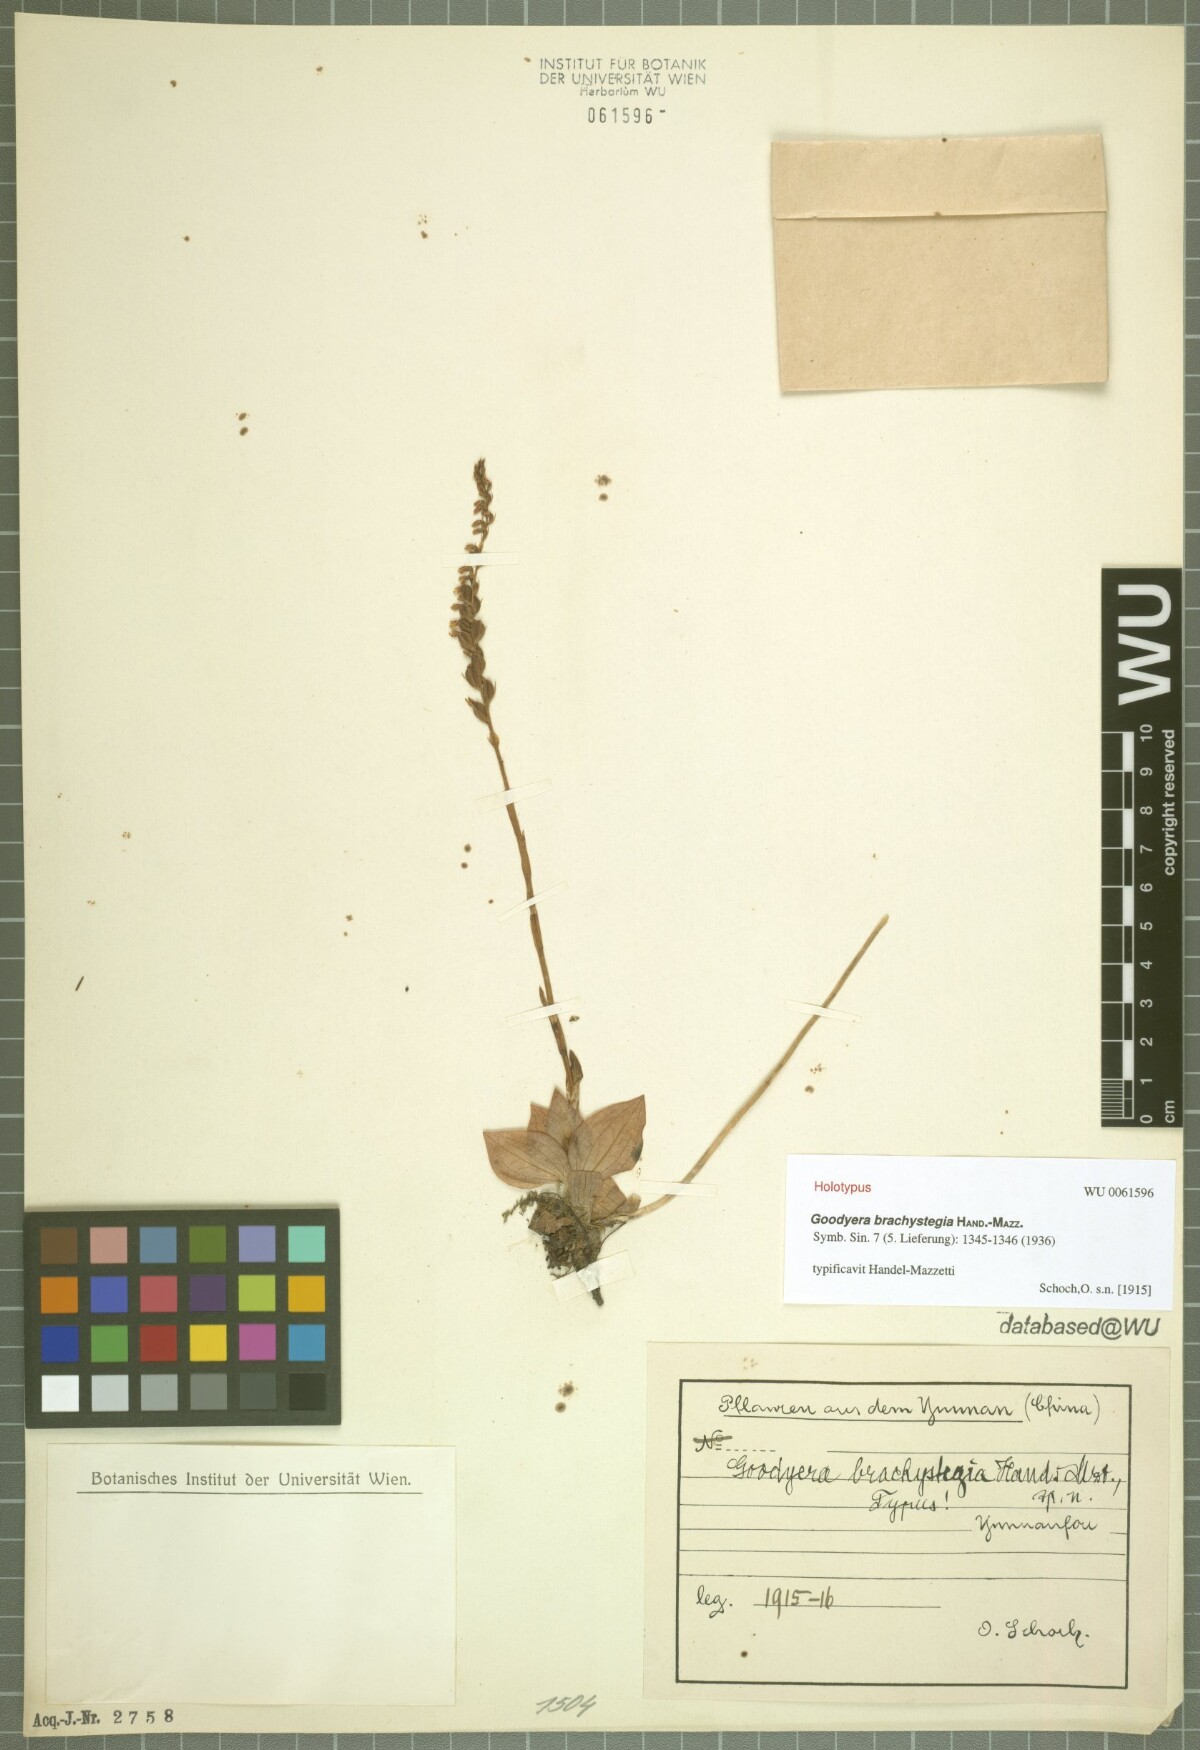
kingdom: Plantae
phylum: Tracheophyta
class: Liliopsida
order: Asparagales
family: Orchidaceae
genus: Goodyera
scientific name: Goodyera brachystegia
